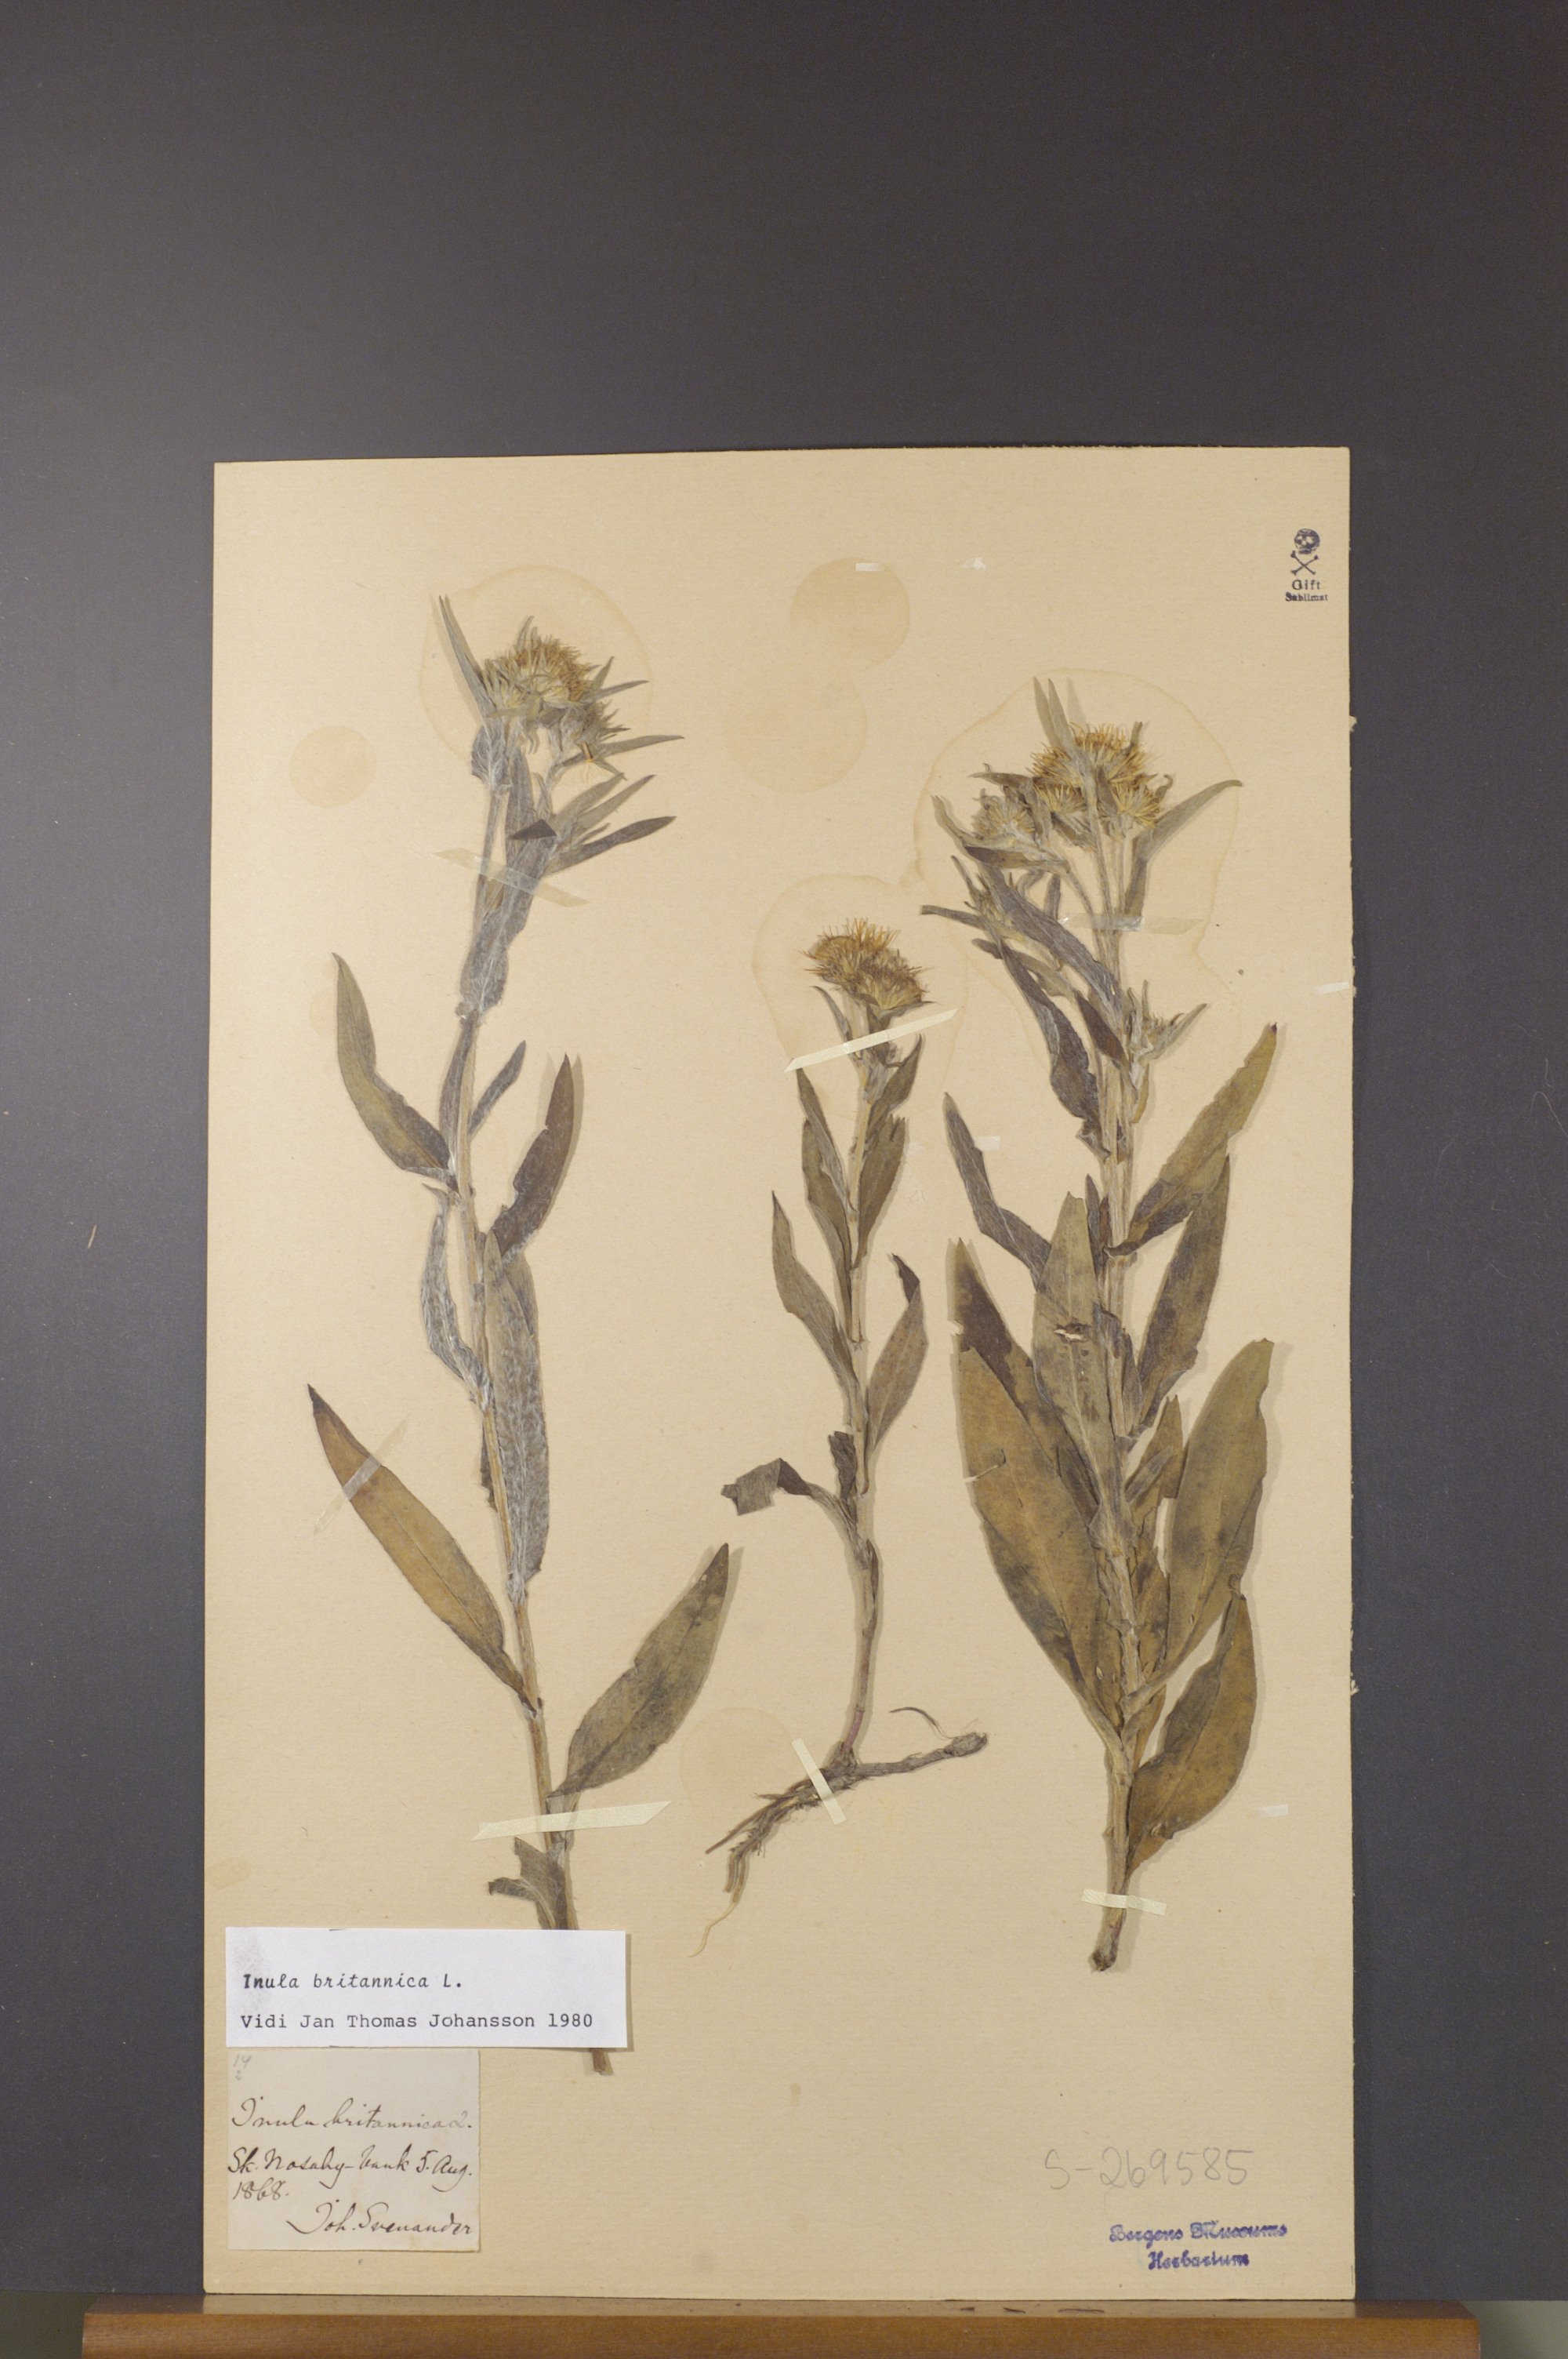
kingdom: Plantae
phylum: Tracheophyta
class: Magnoliopsida
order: Asterales
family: Asteraceae
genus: Pentanema
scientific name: Pentanema britannicum
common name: British elecampane
